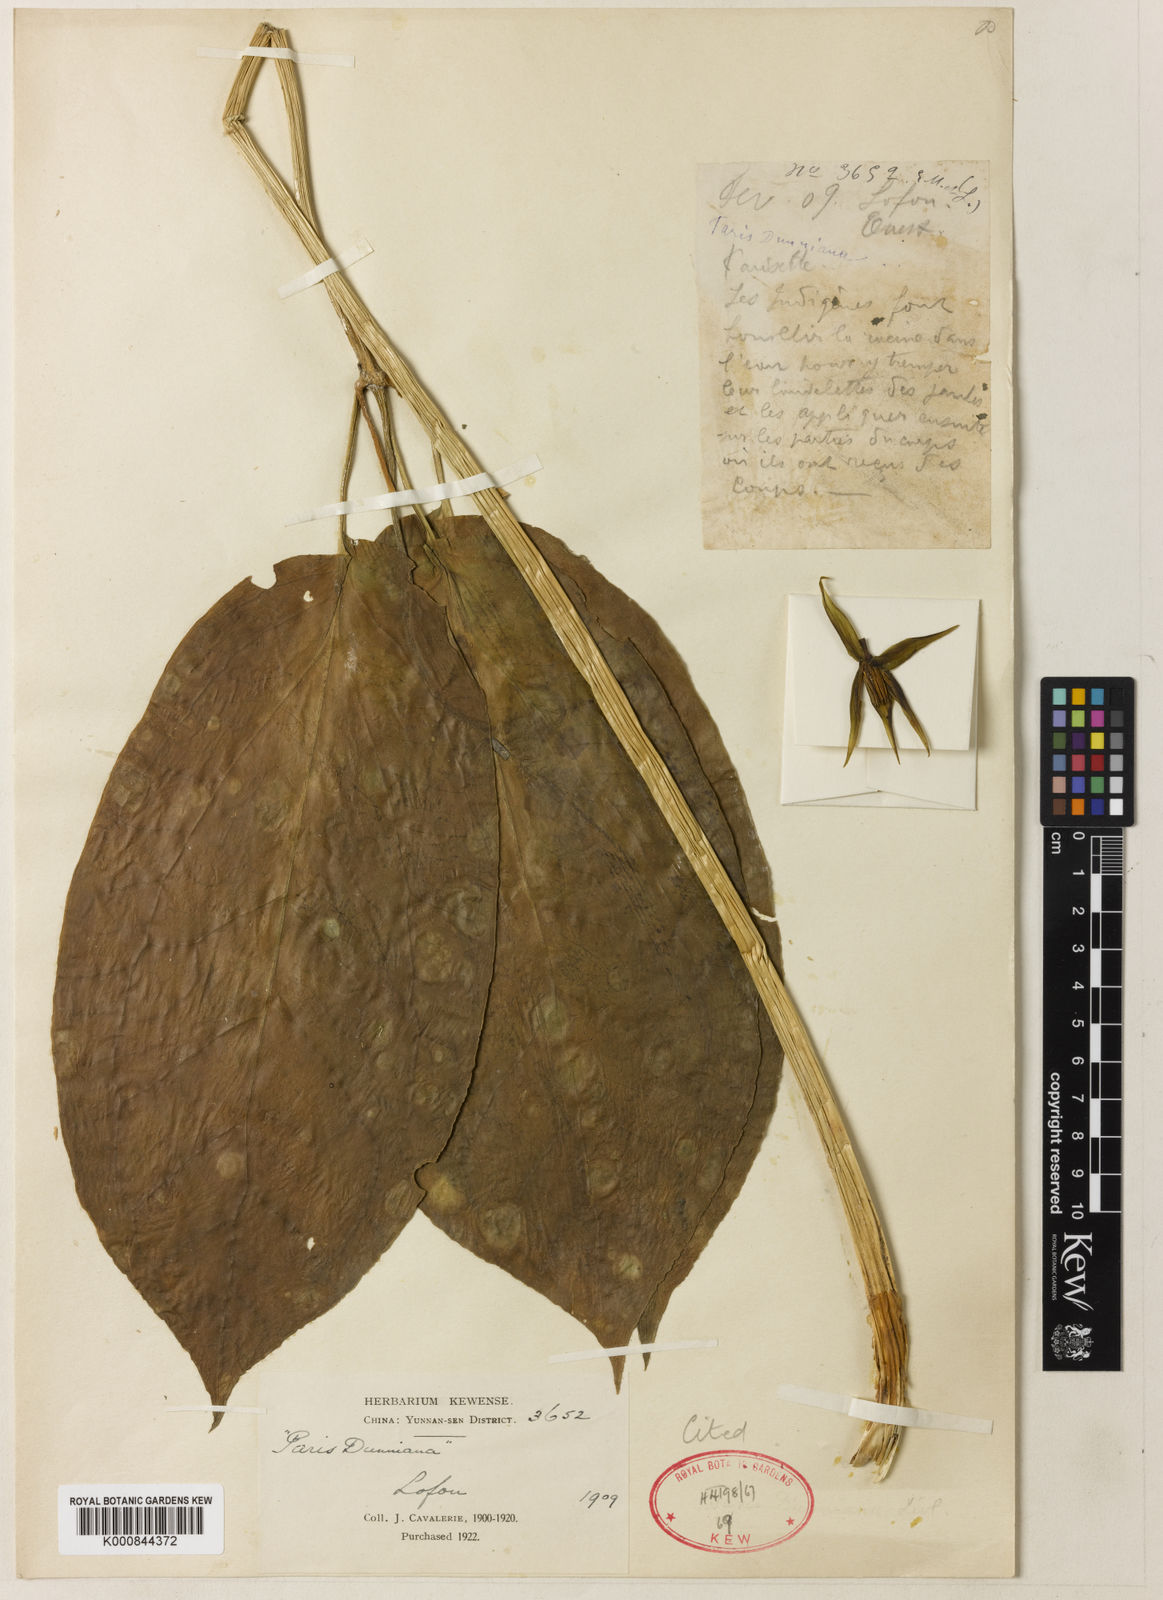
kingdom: Plantae
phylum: Tracheophyta
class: Liliopsida
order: Liliales
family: Melanthiaceae
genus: Paris
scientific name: Paris
